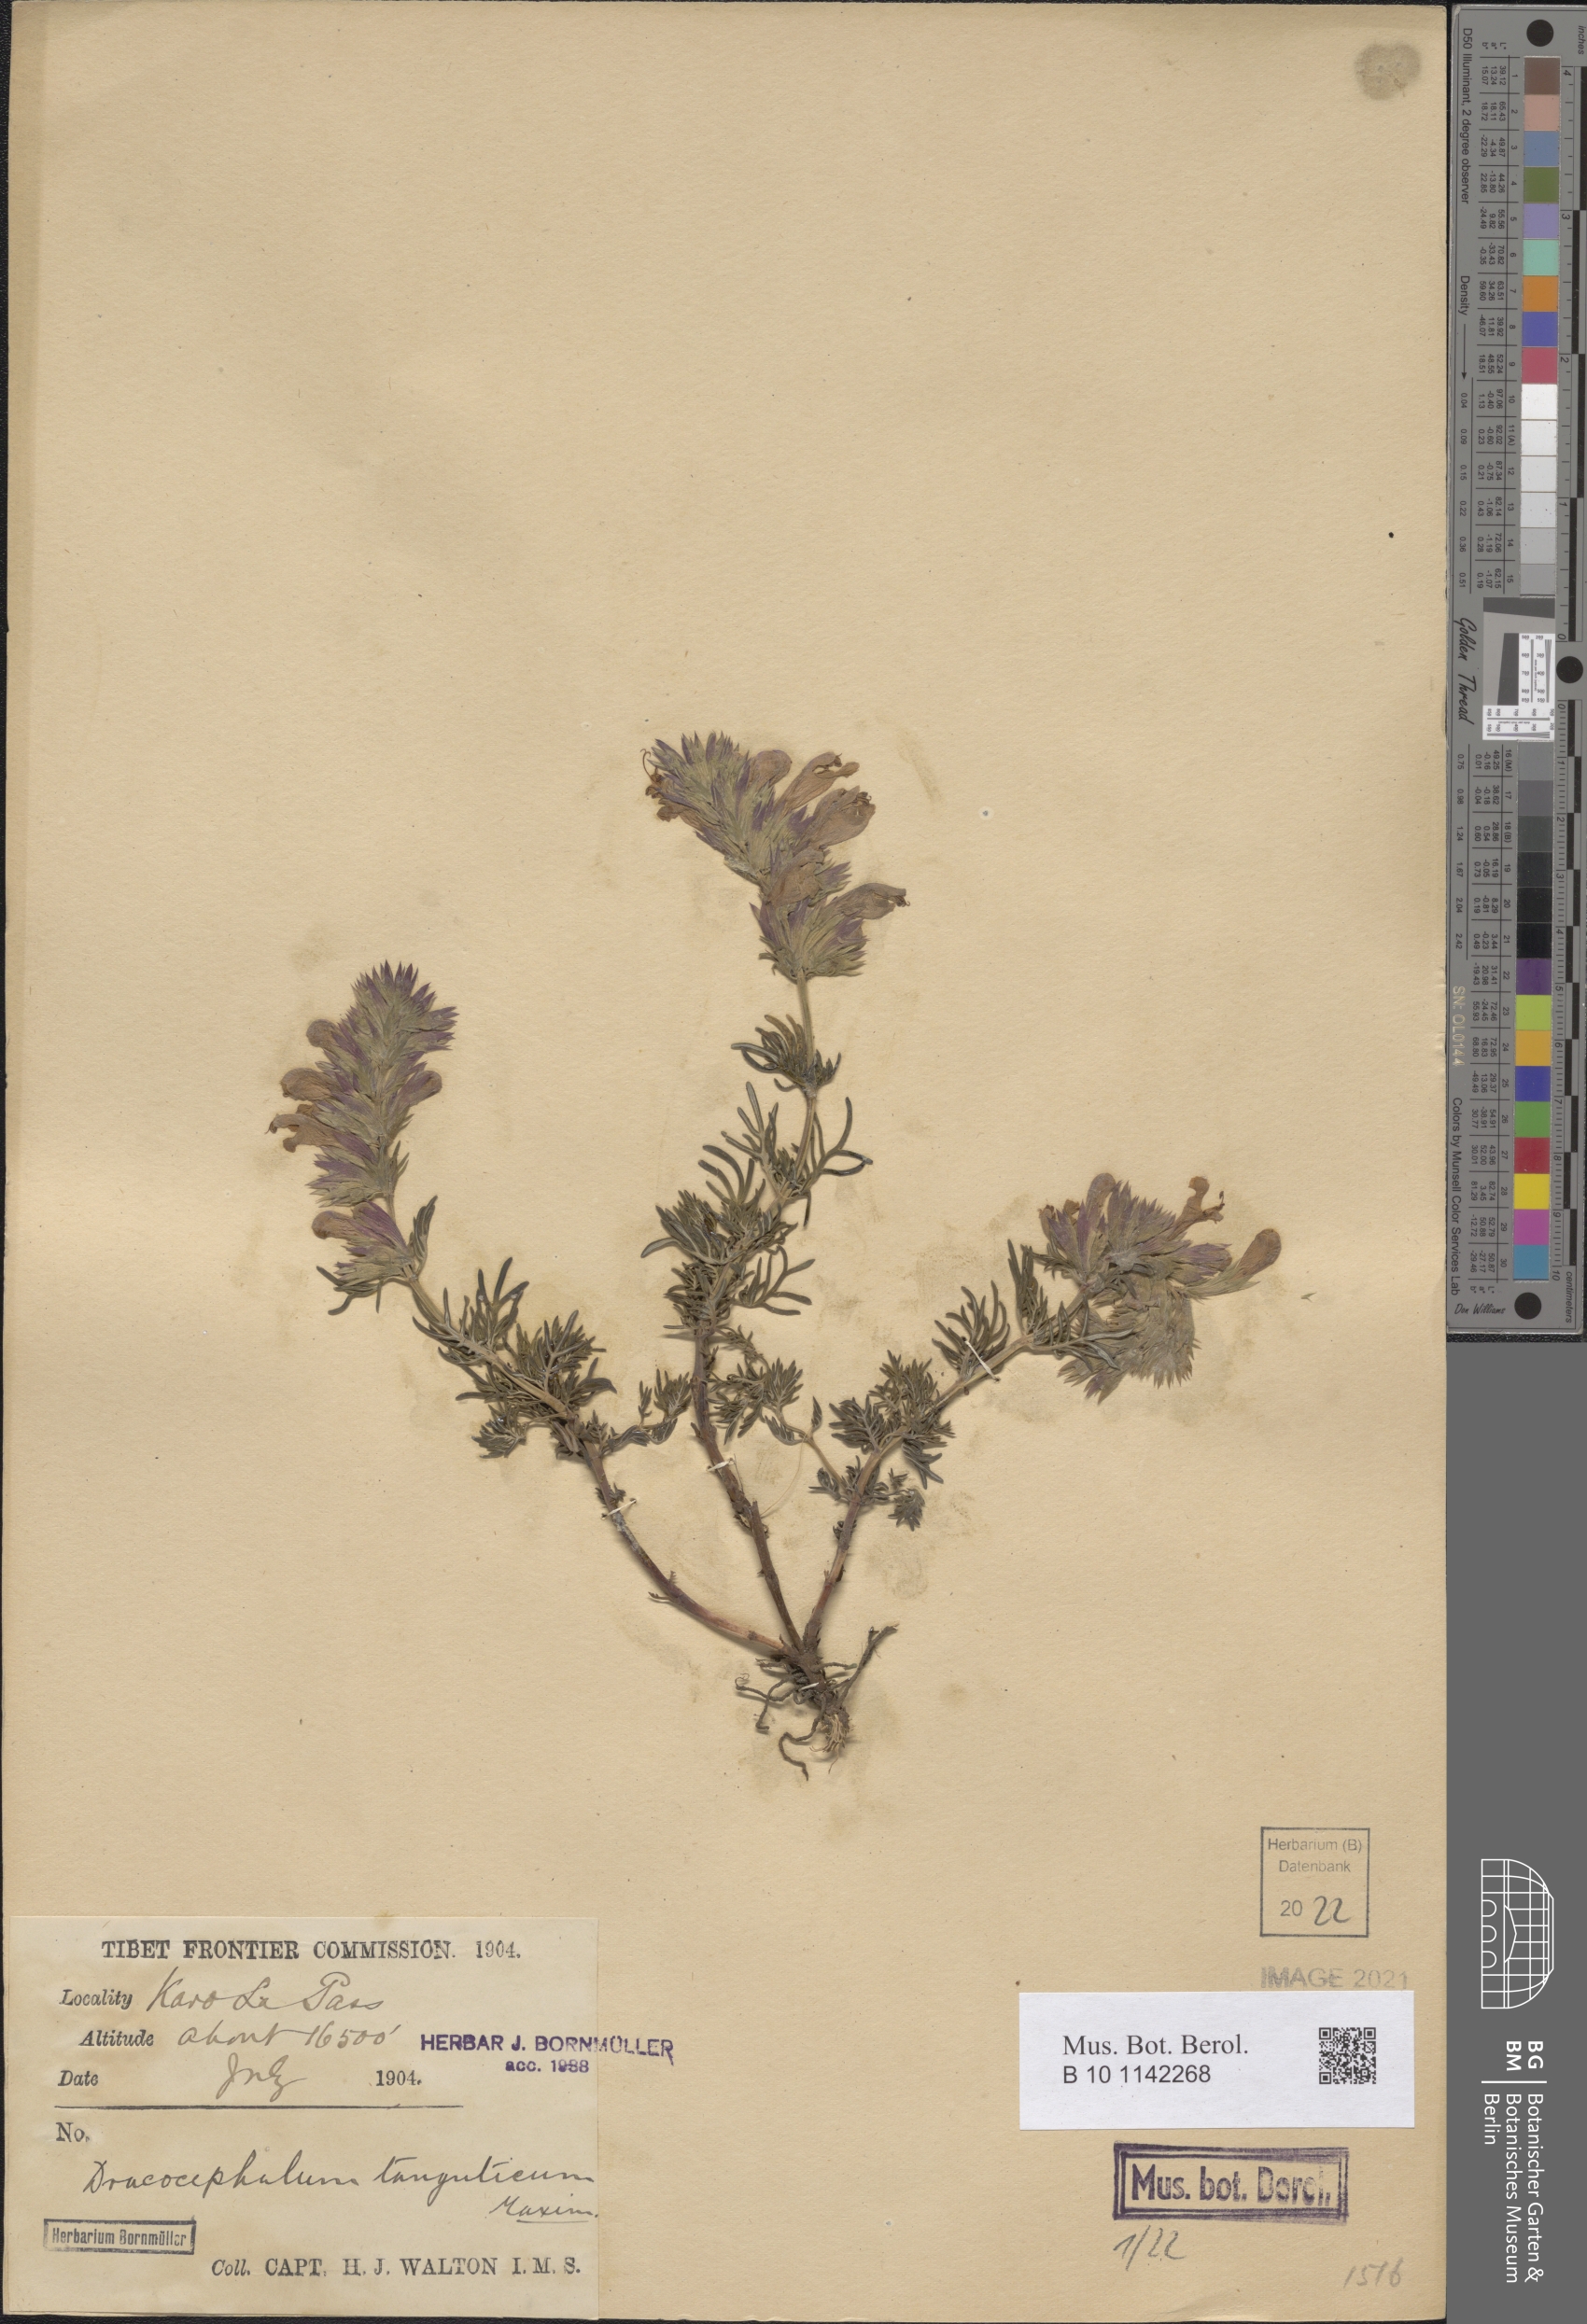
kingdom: Plantae
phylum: Tracheophyta
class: Magnoliopsida
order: Lamiales
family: Lamiaceae
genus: Dracocephalum
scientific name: Dracocephalum tanguticum
